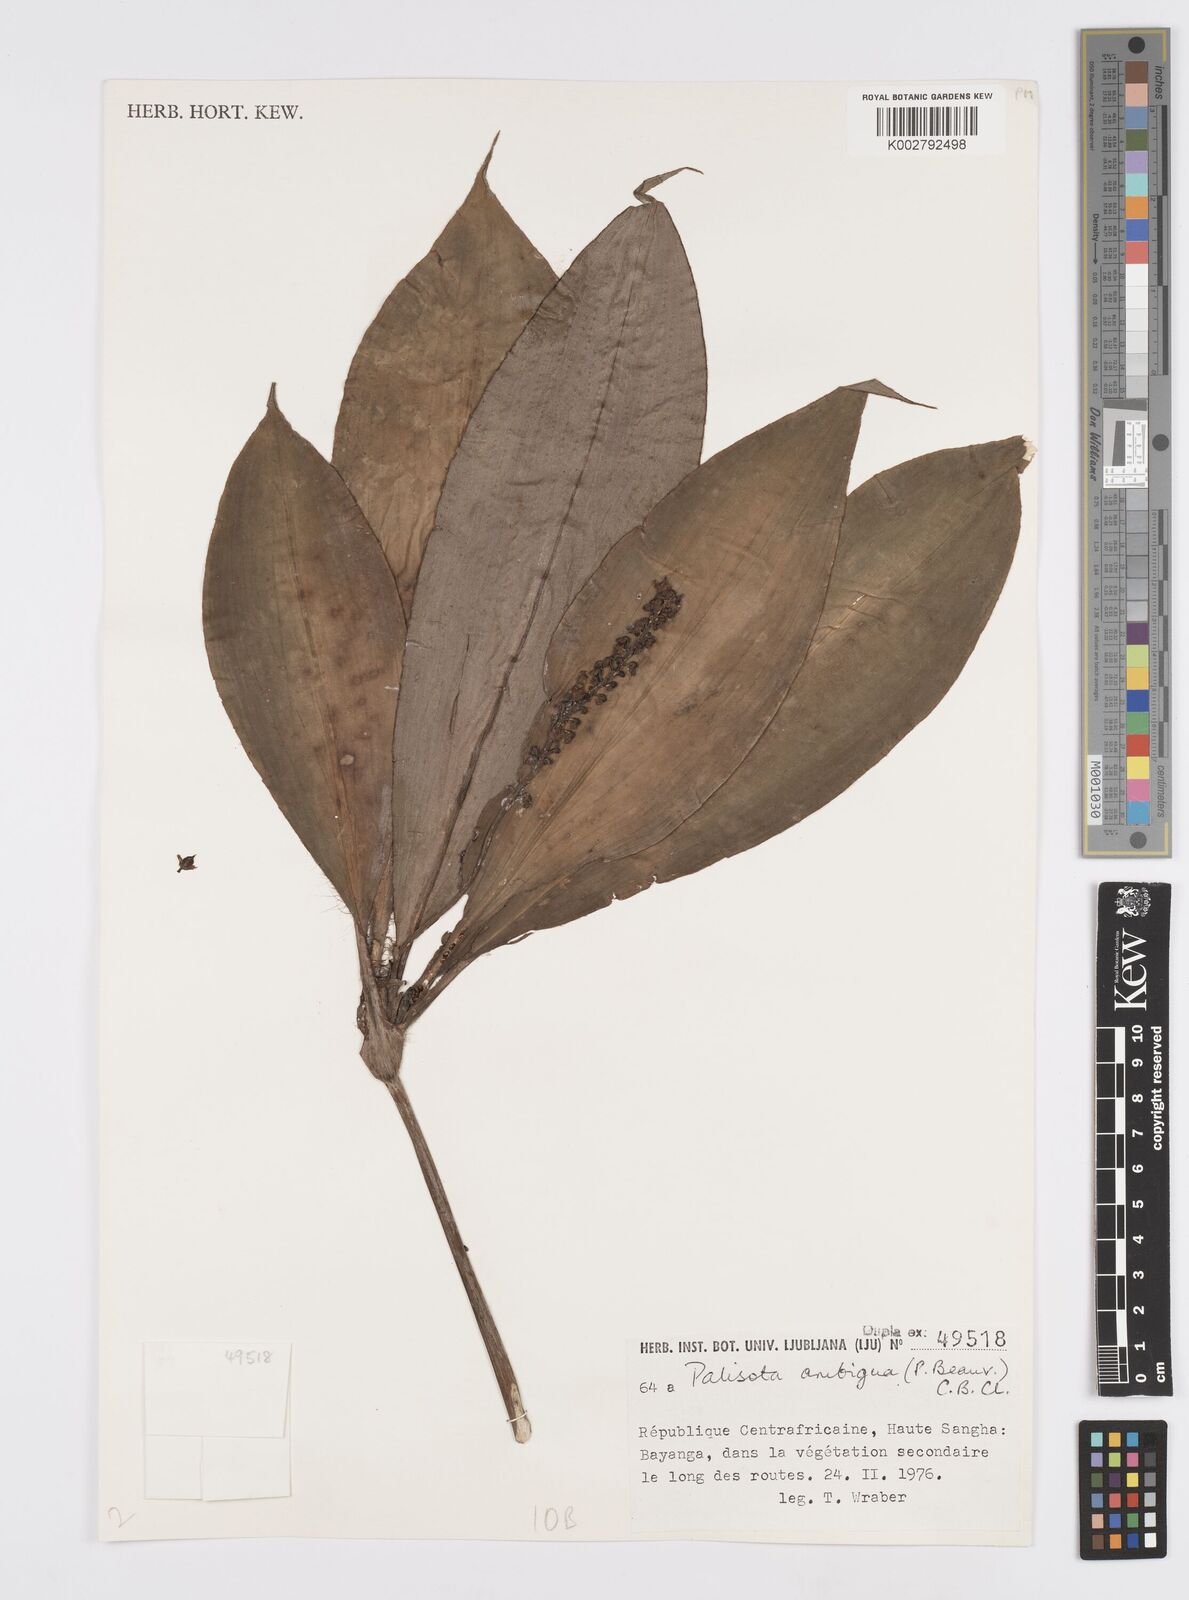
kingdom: Plantae
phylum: Tracheophyta
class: Liliopsida
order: Commelinales
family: Commelinaceae
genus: Palisota
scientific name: Palisota ambigua
